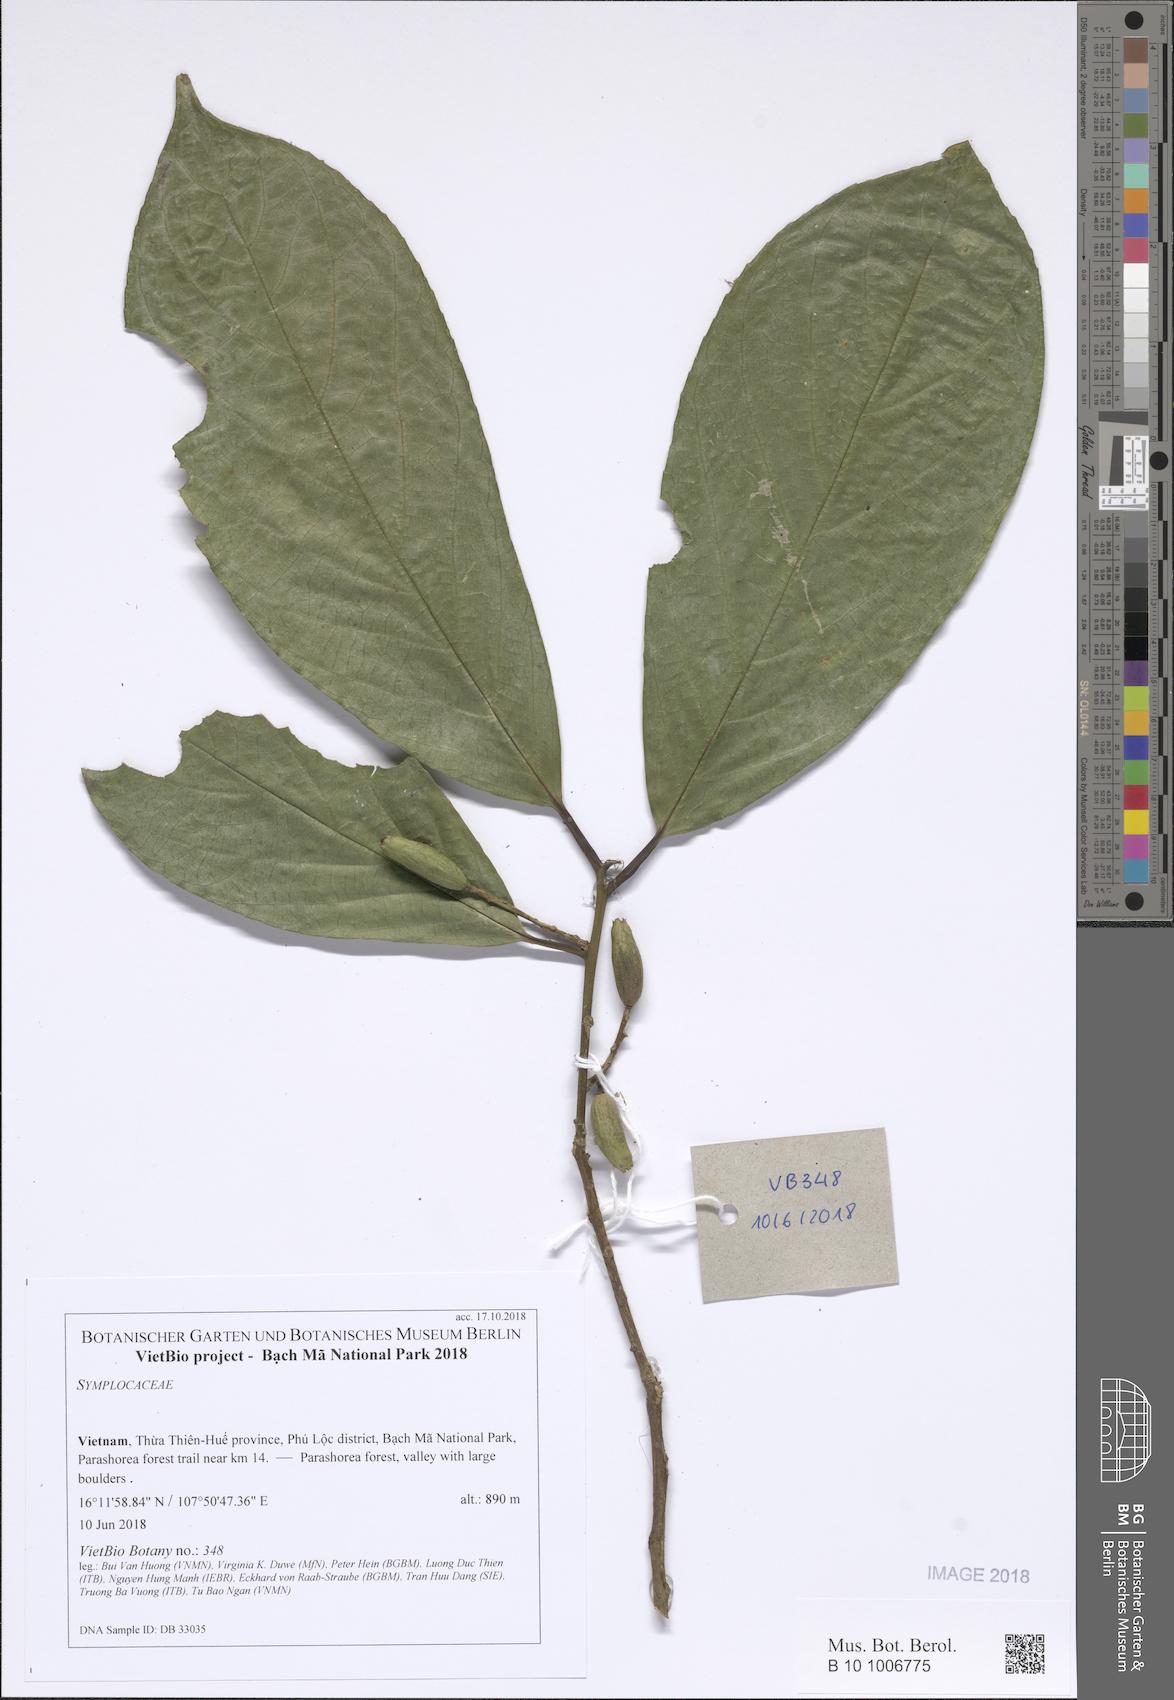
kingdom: Plantae
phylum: Tracheophyta
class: Magnoliopsida
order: Ericales
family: Symplocaceae
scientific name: Symplocaceae
